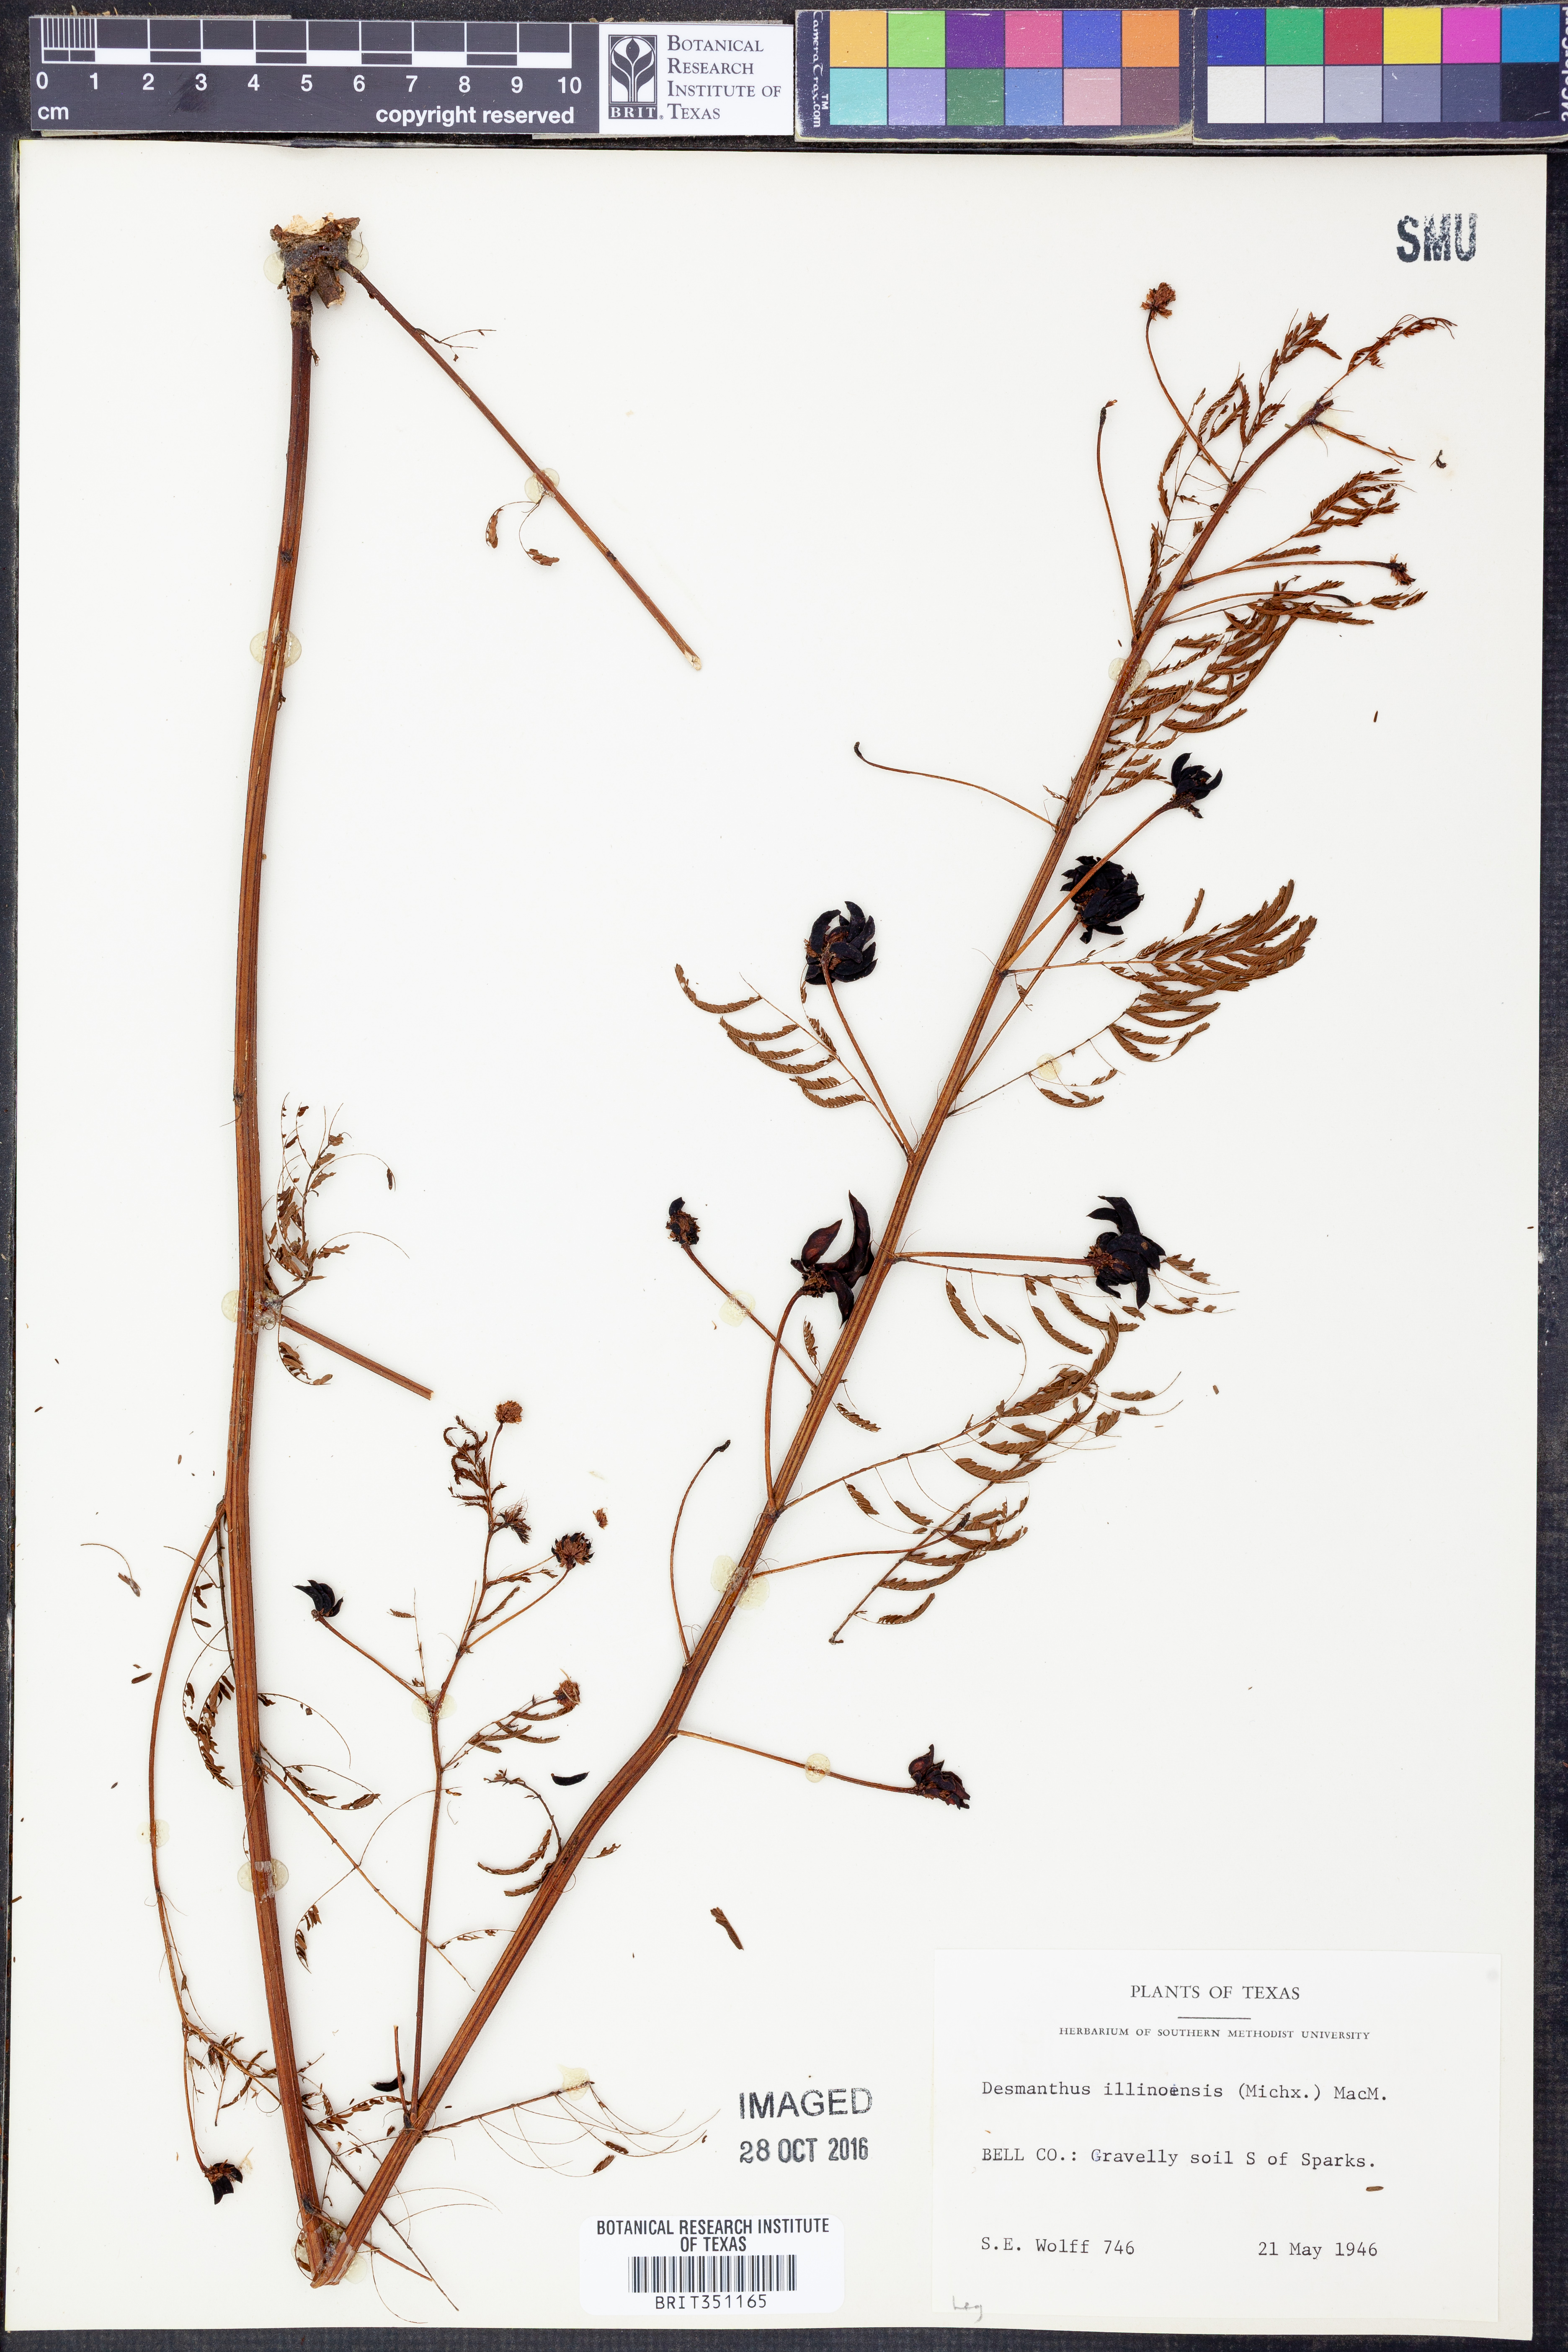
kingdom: Plantae
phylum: Tracheophyta
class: Magnoliopsida
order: Fabales
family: Fabaceae
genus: Desmanthus
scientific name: Desmanthus illinoensis
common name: Illinois bundle-flower
